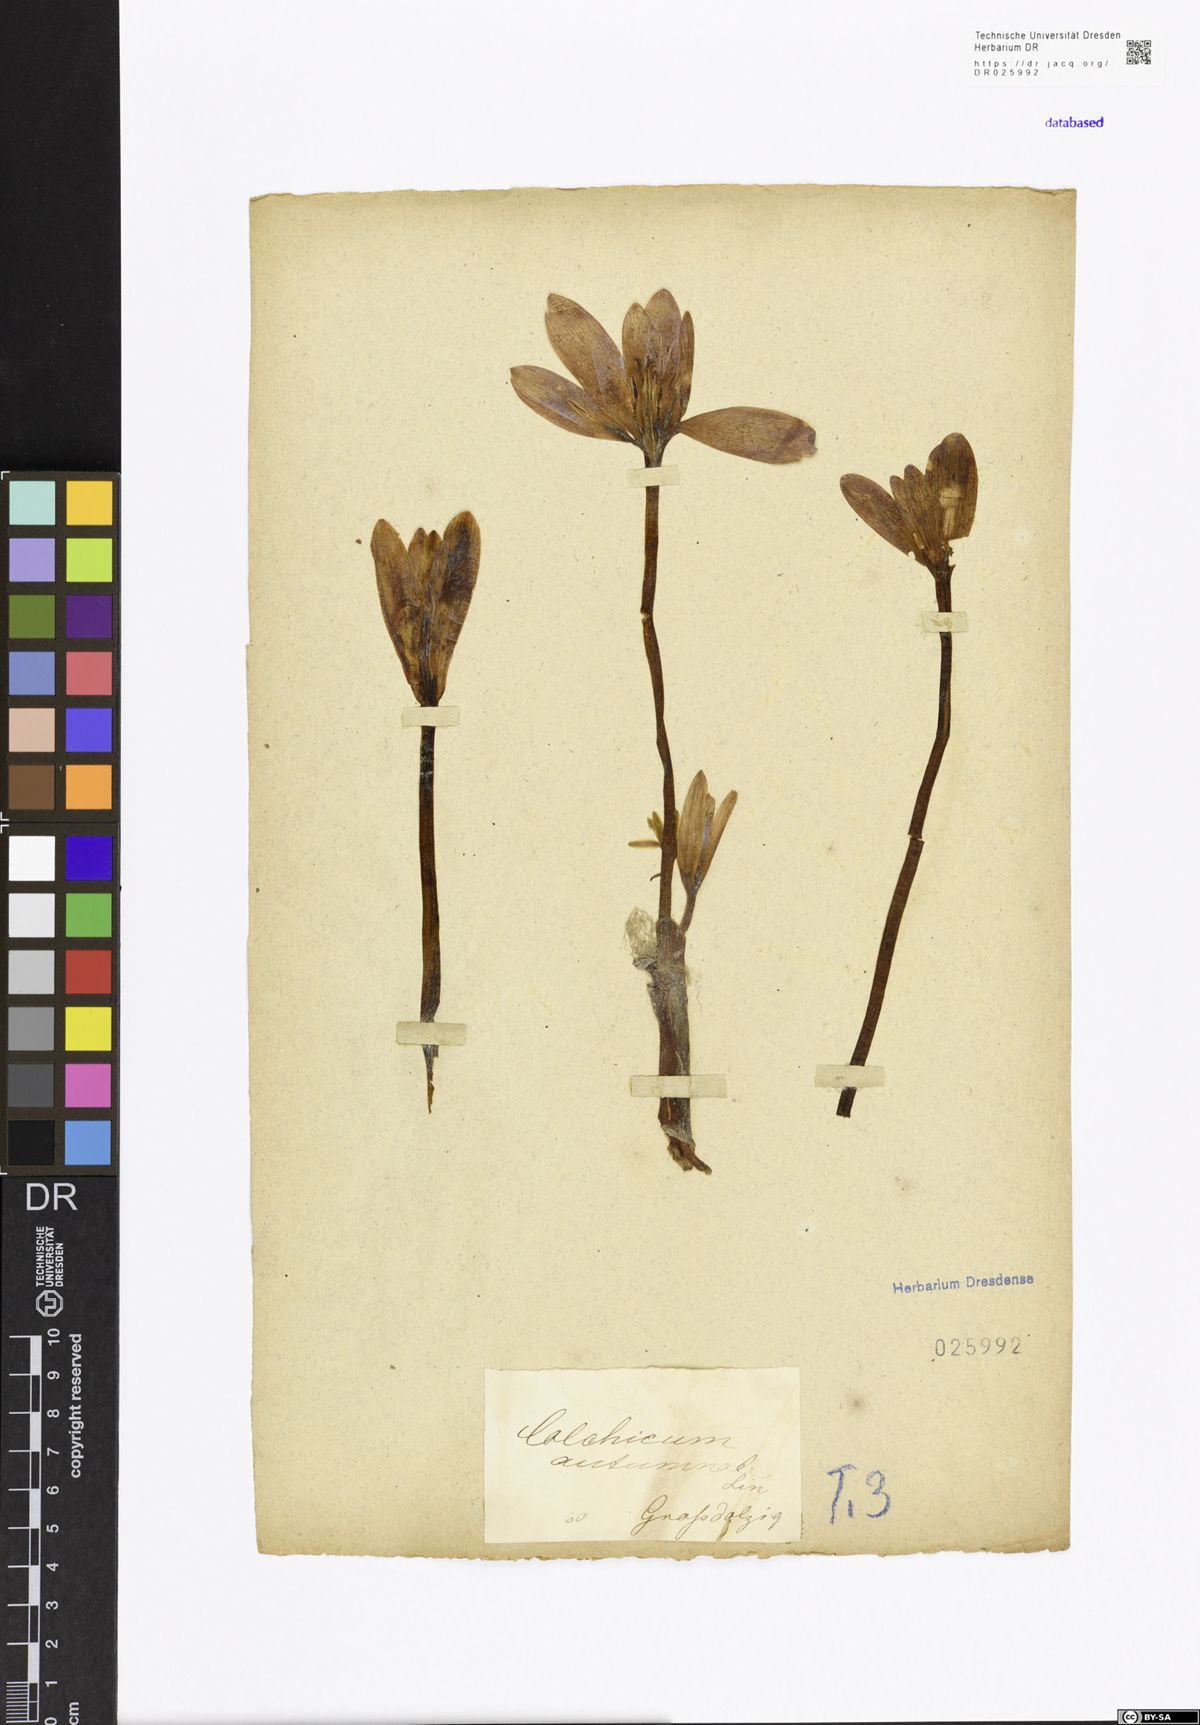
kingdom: Plantae
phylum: Tracheophyta
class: Liliopsida
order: Liliales
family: Colchicaceae
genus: Colchicum
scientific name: Colchicum autumnale
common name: Autumn crocus
